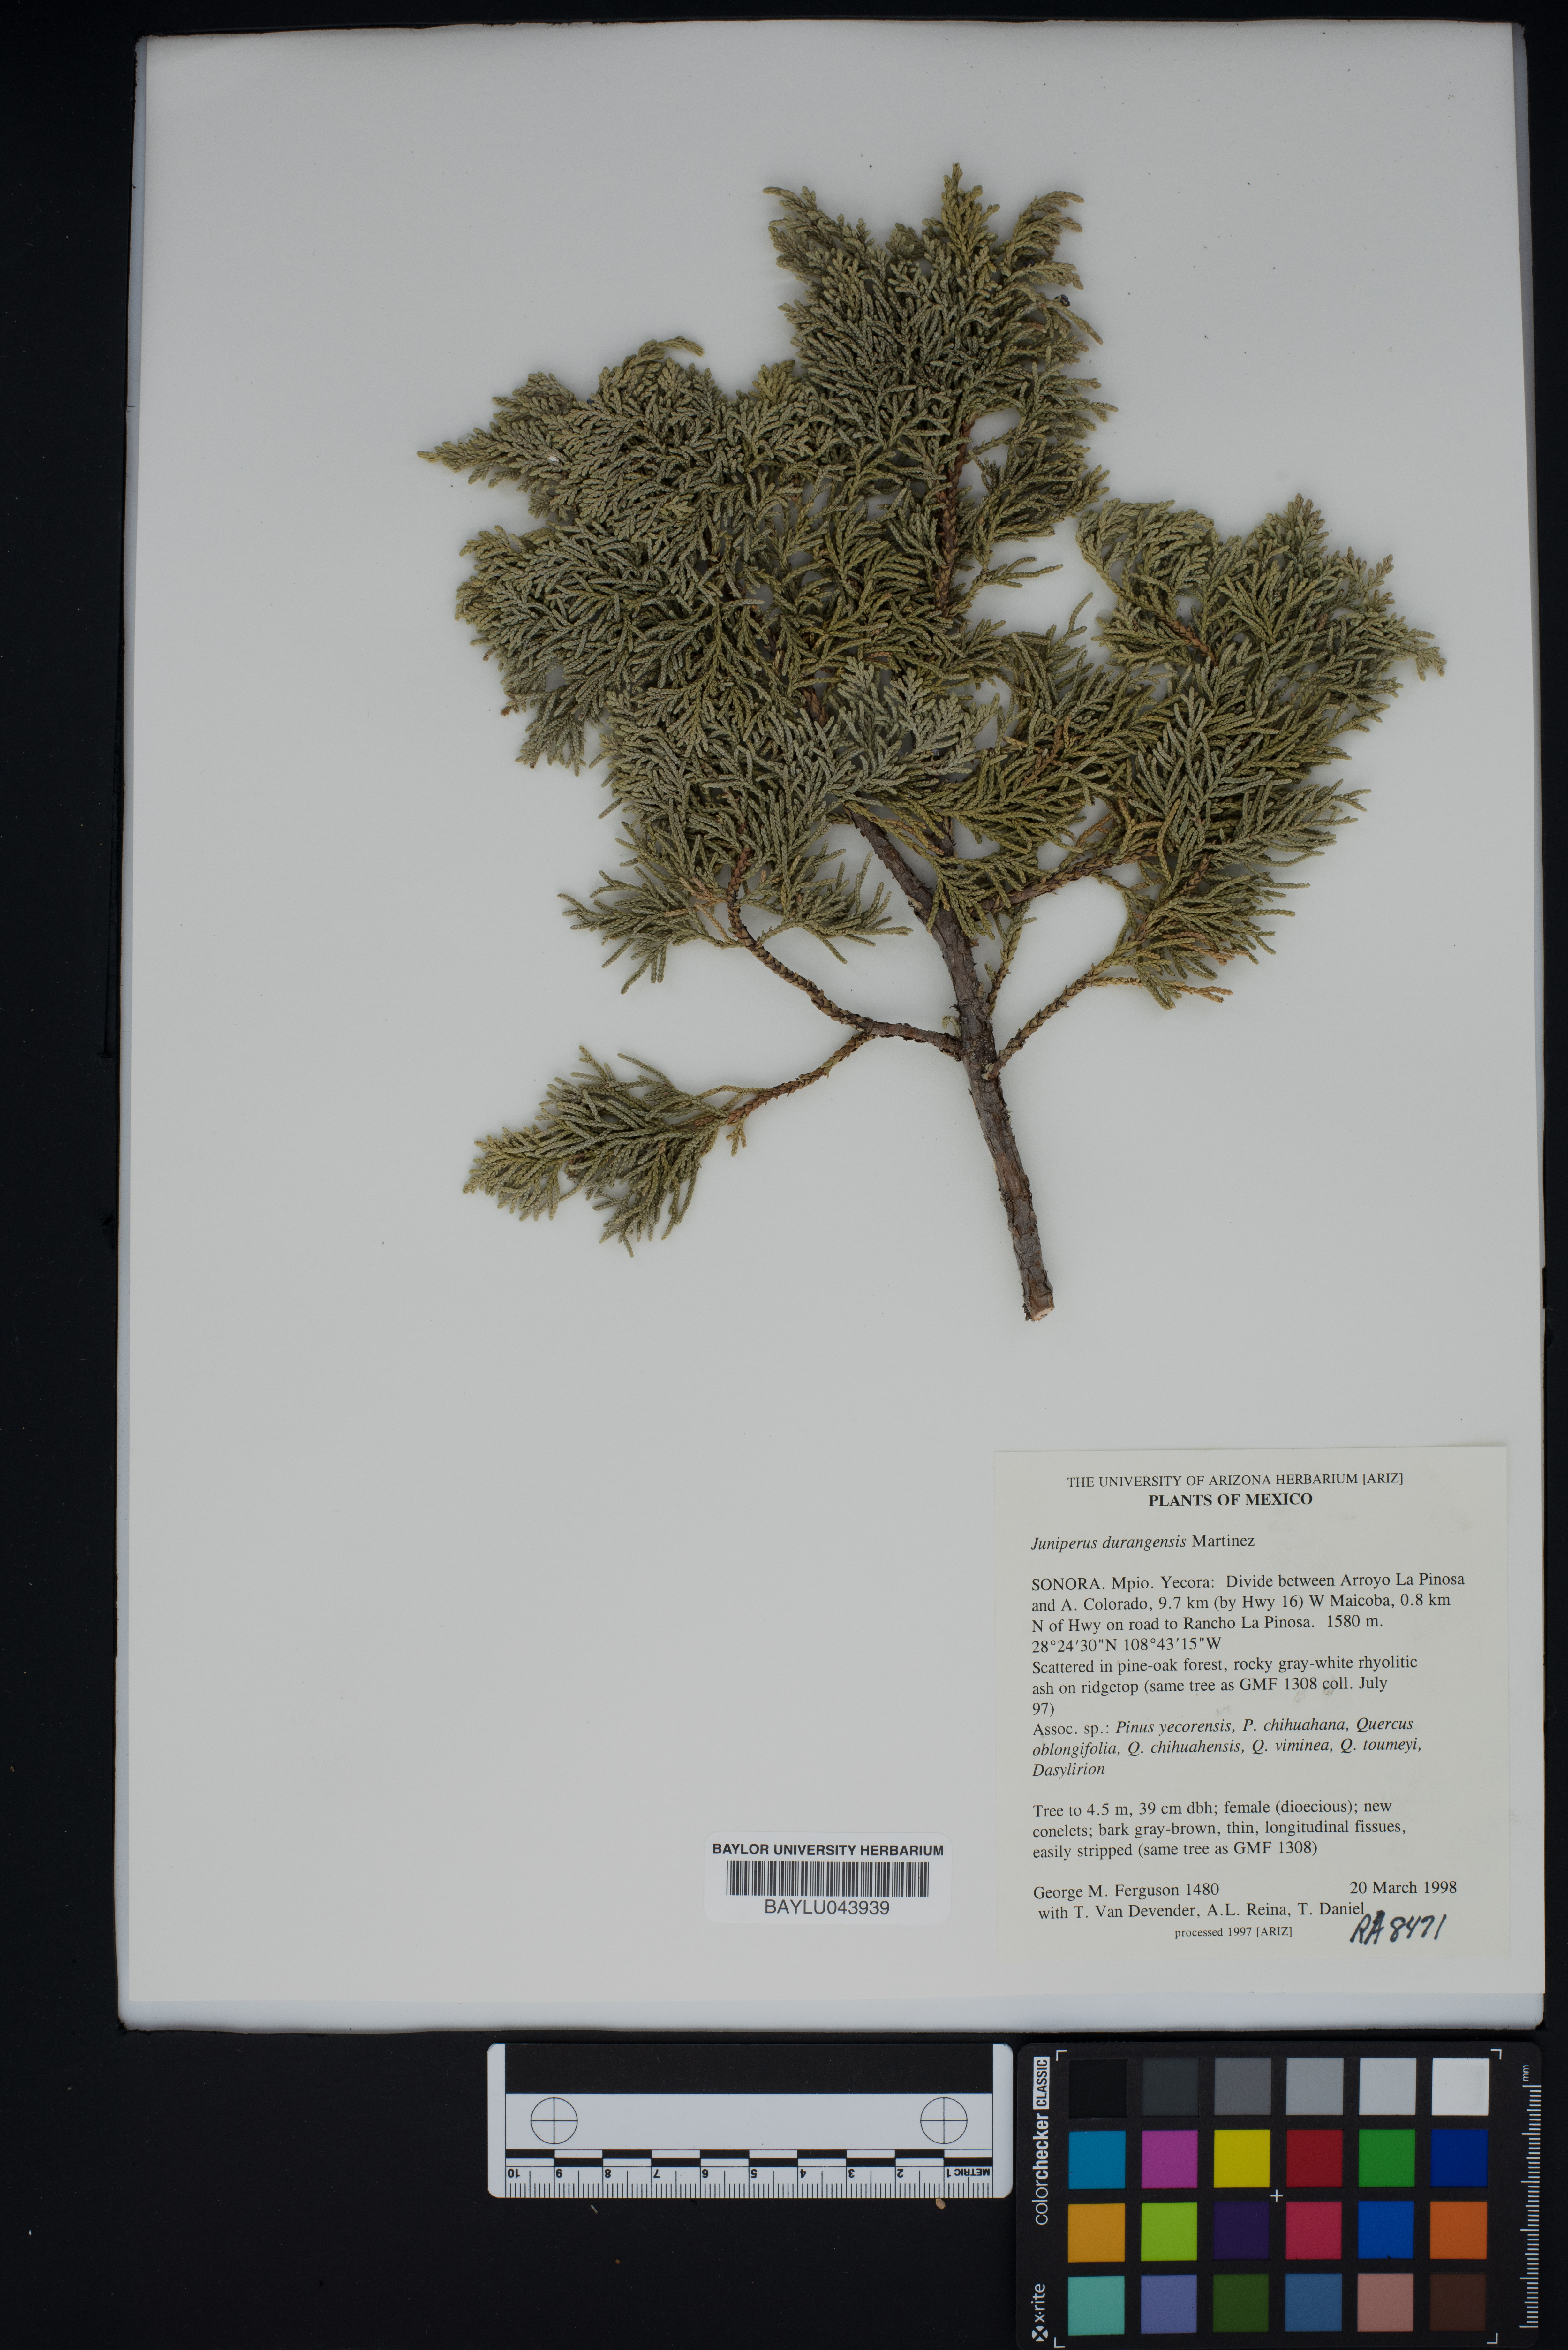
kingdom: Plantae
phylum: Tracheophyta
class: Pinopsida
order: Pinales
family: Cupressaceae
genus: Juniperus
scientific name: Juniperus durangensis
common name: Durango juniper
